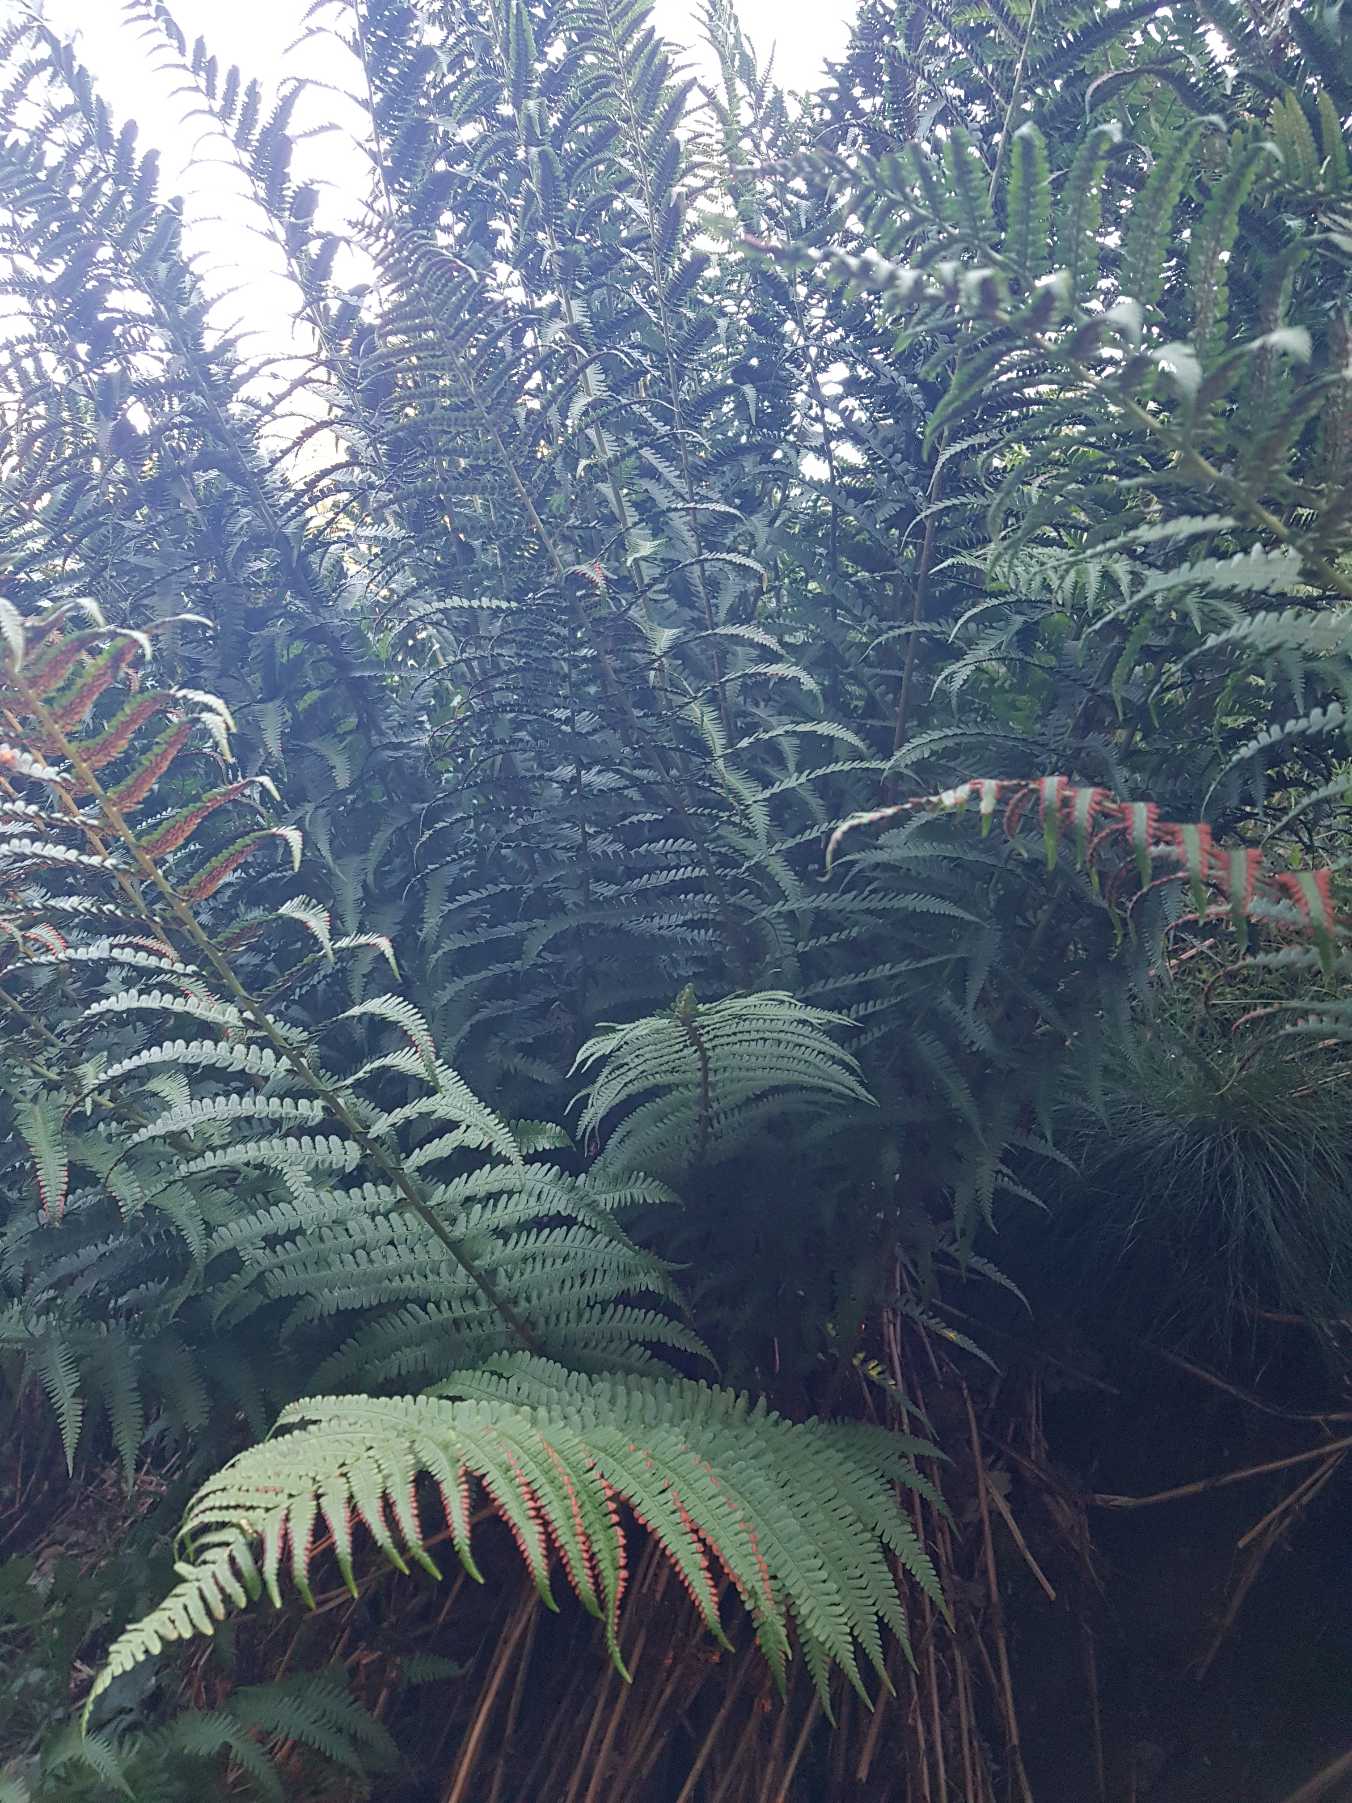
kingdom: Plantae
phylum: Tracheophyta
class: Polypodiopsida
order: Polypodiales
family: Dryopteridaceae
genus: Dryopteris
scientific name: Dryopteris filix-mas
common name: Almindelig mangeløv
